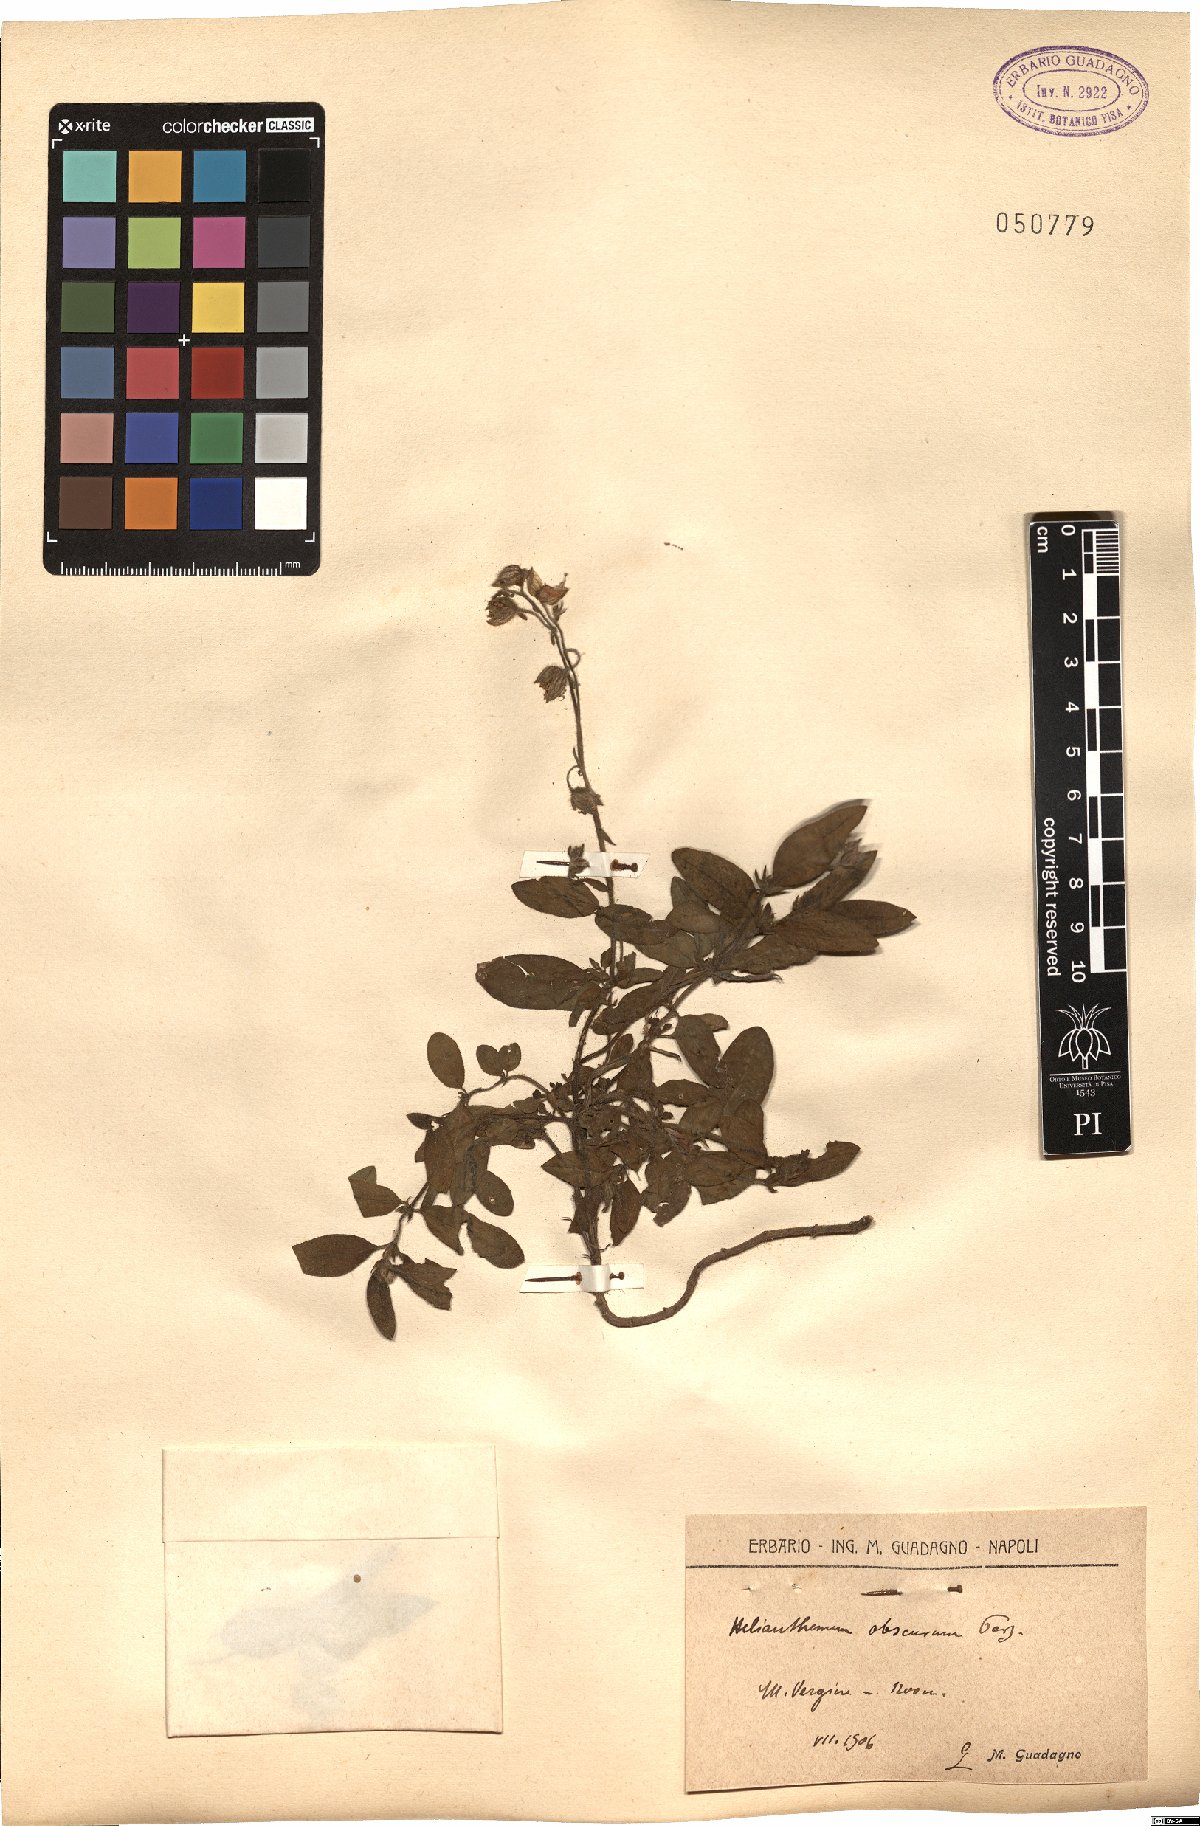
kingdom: Plantae
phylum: Tracheophyta
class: Magnoliopsida
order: Malvales
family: Cistaceae
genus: Helianthemum
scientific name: Helianthemum nummularium
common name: Common rock-rose
